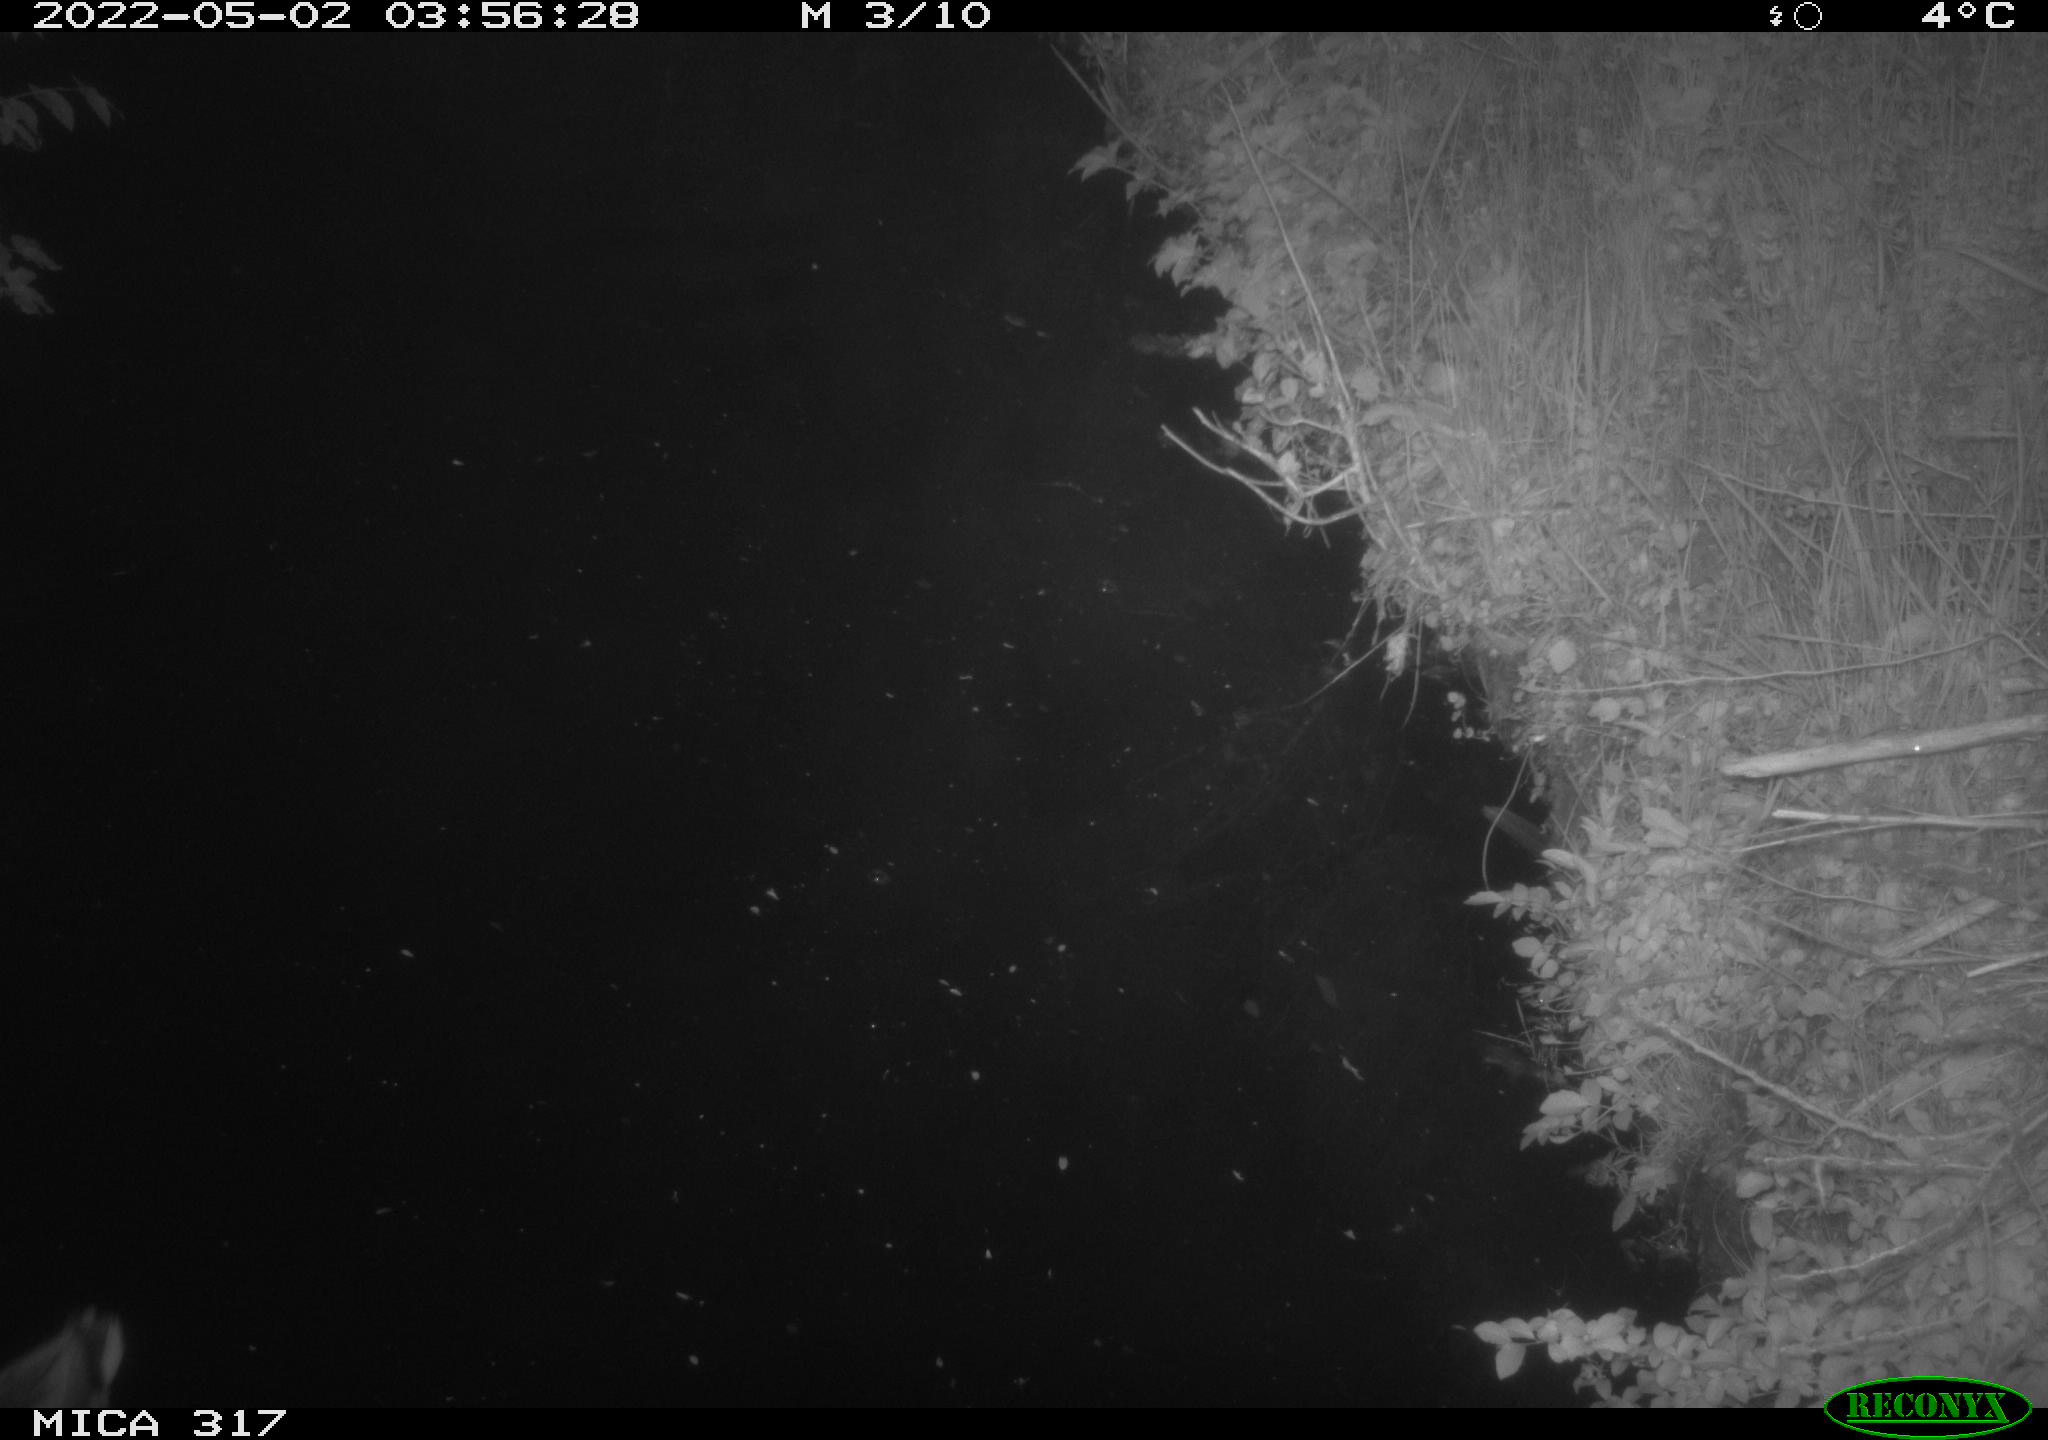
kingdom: Animalia
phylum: Chordata
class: Aves
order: Anseriformes
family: Anatidae
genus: Anas
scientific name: Anas platyrhynchos
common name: Mallard
